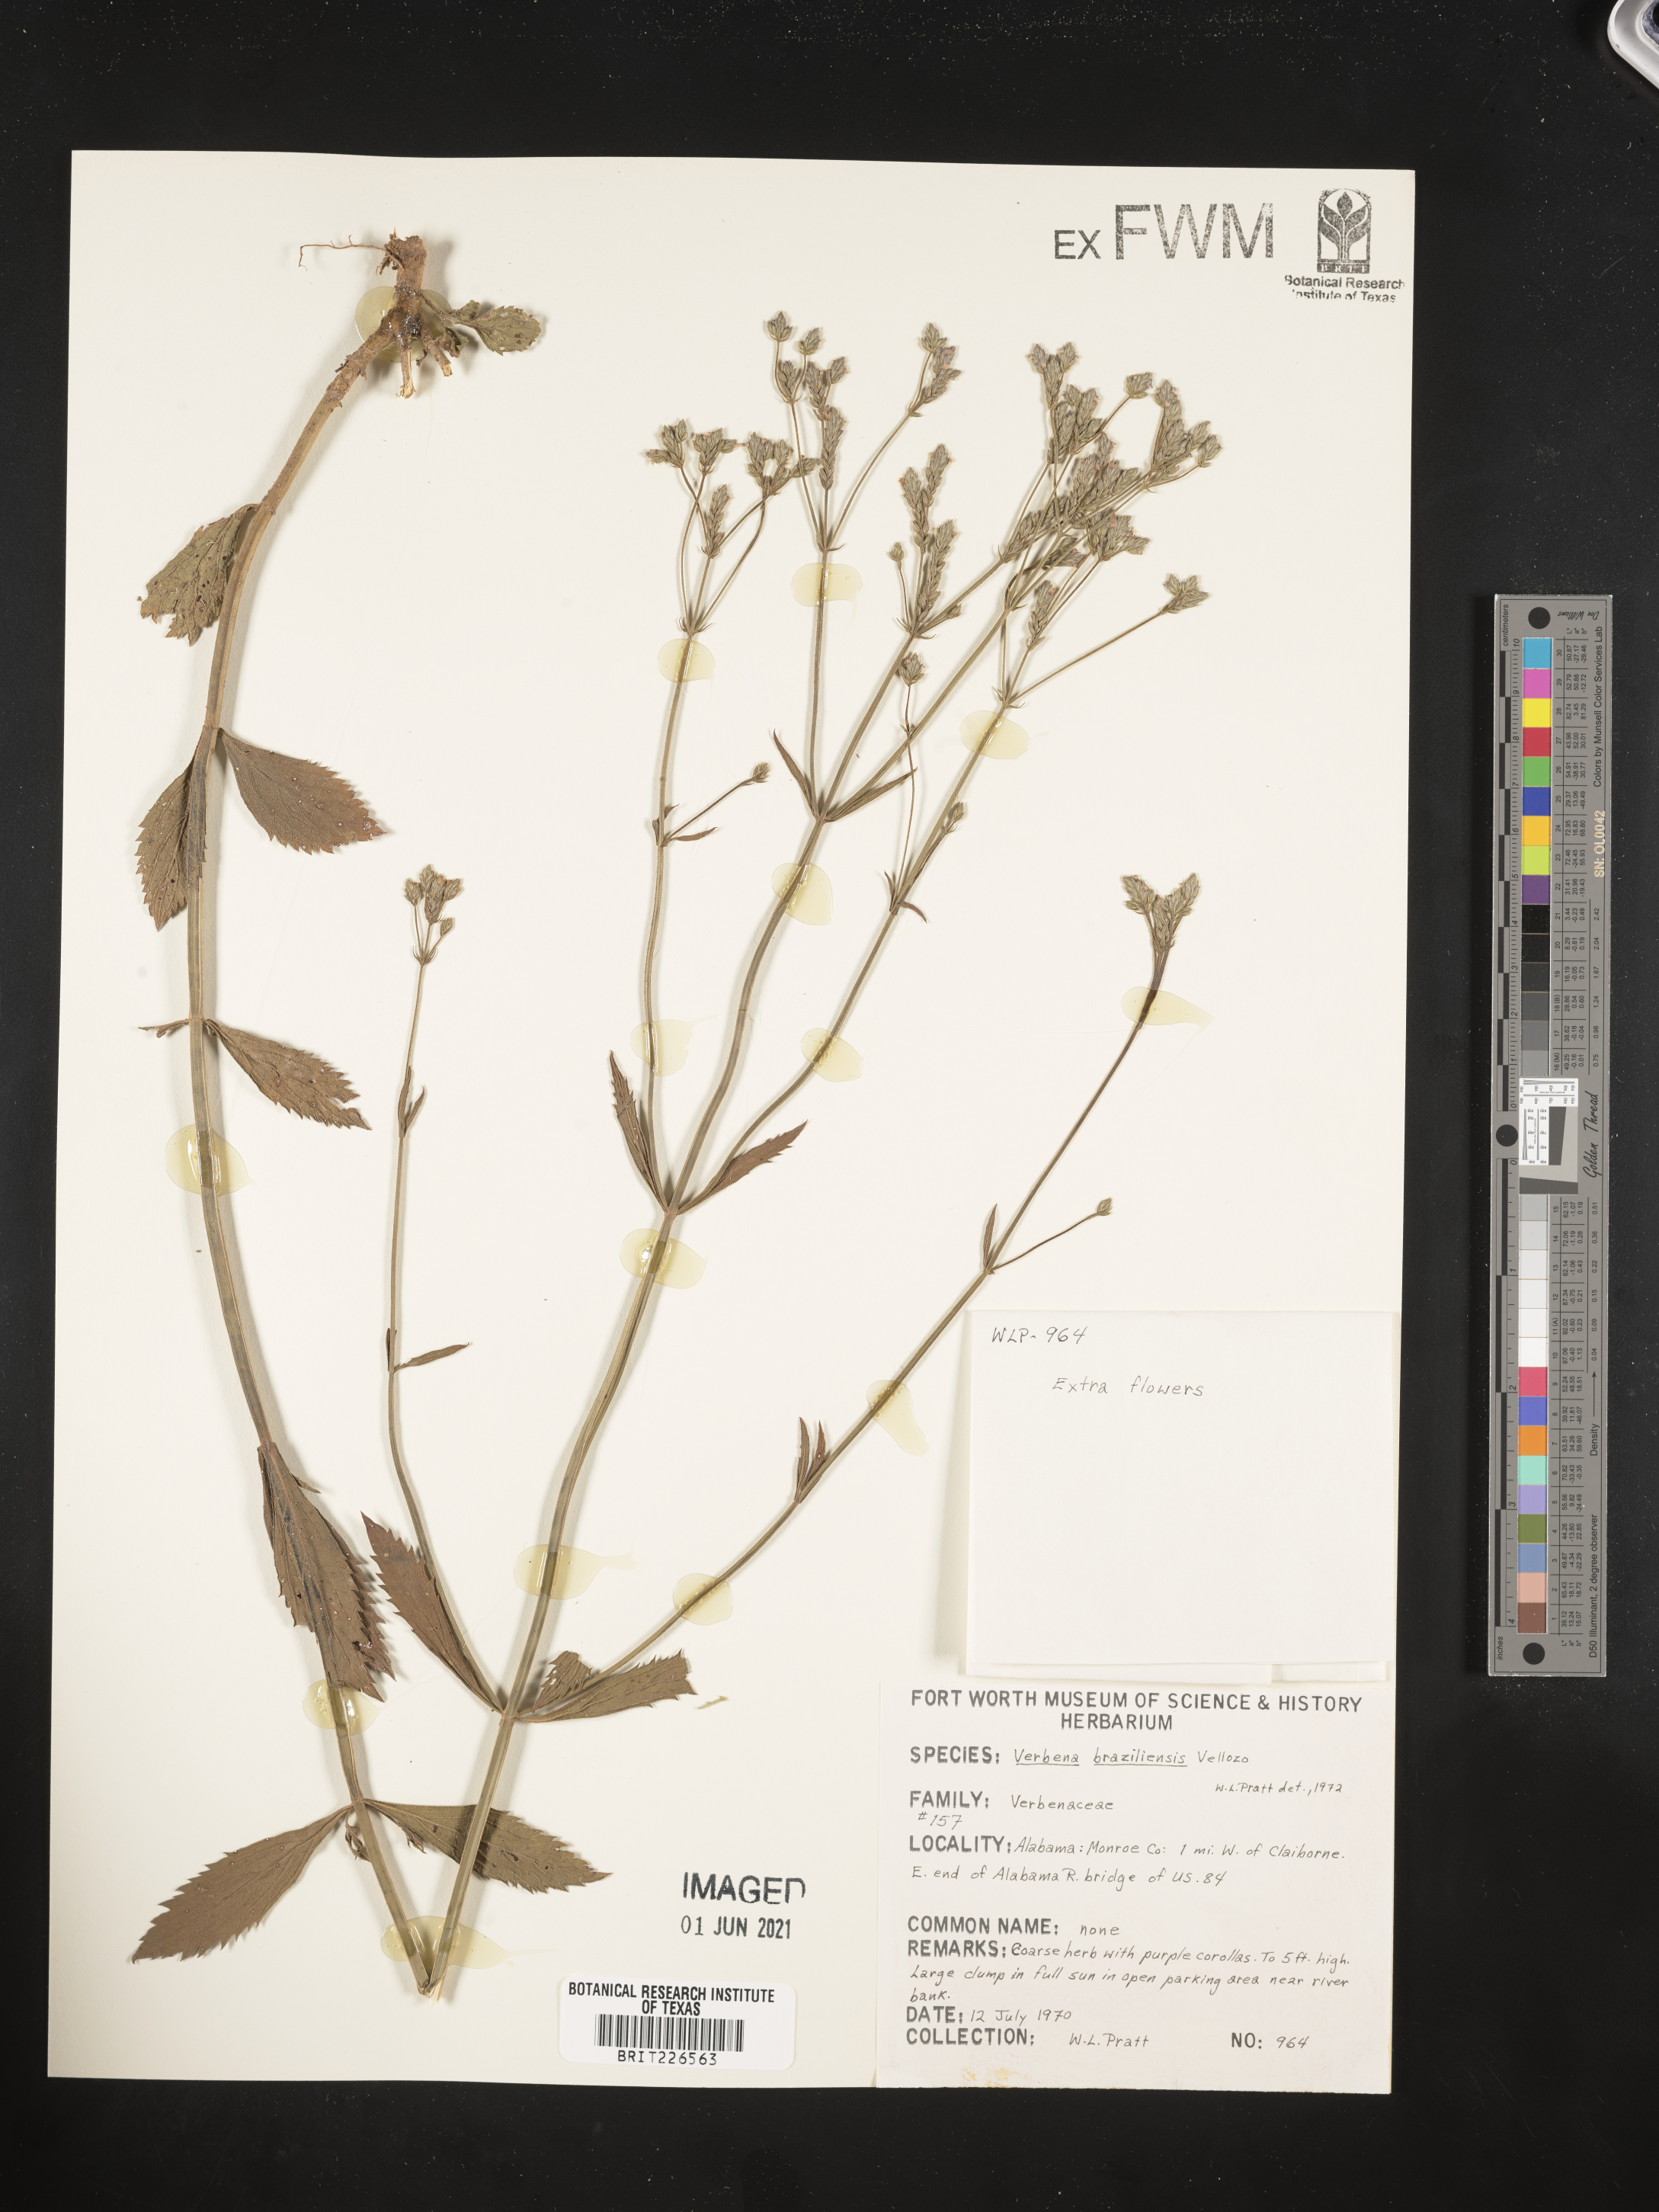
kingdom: Plantae
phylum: Tracheophyta
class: Magnoliopsida
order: Lamiales
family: Verbenaceae
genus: Verbena
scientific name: Verbena brasiliensis
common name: Brazilian vervain
